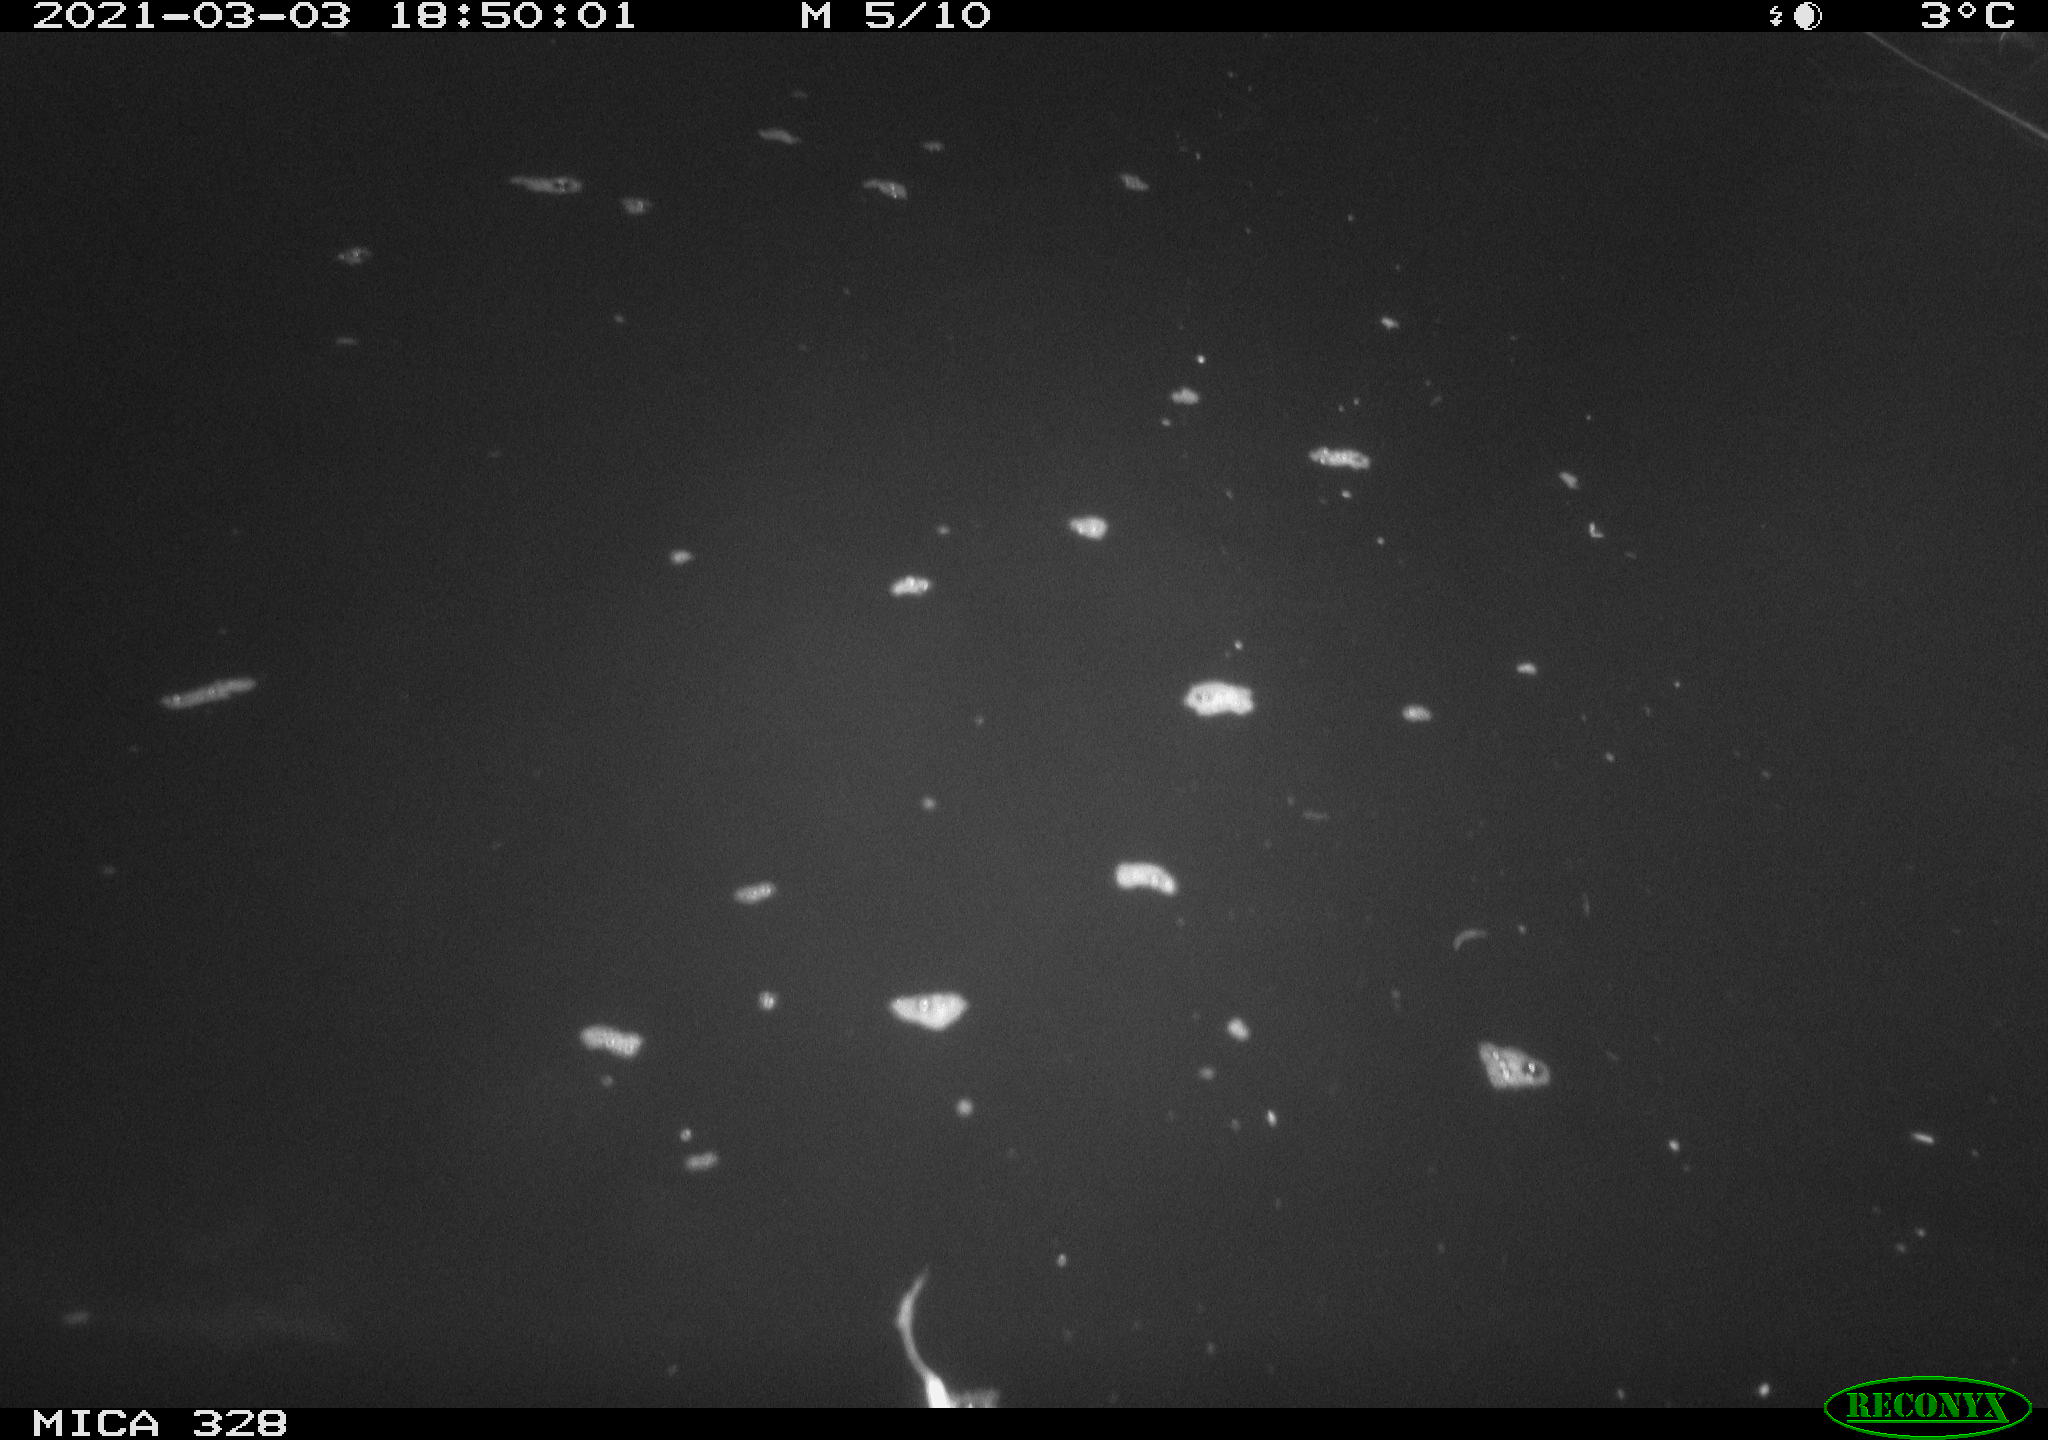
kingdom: Animalia
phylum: Chordata
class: Aves
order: Anseriformes
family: Anatidae
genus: Anas
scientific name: Anas
